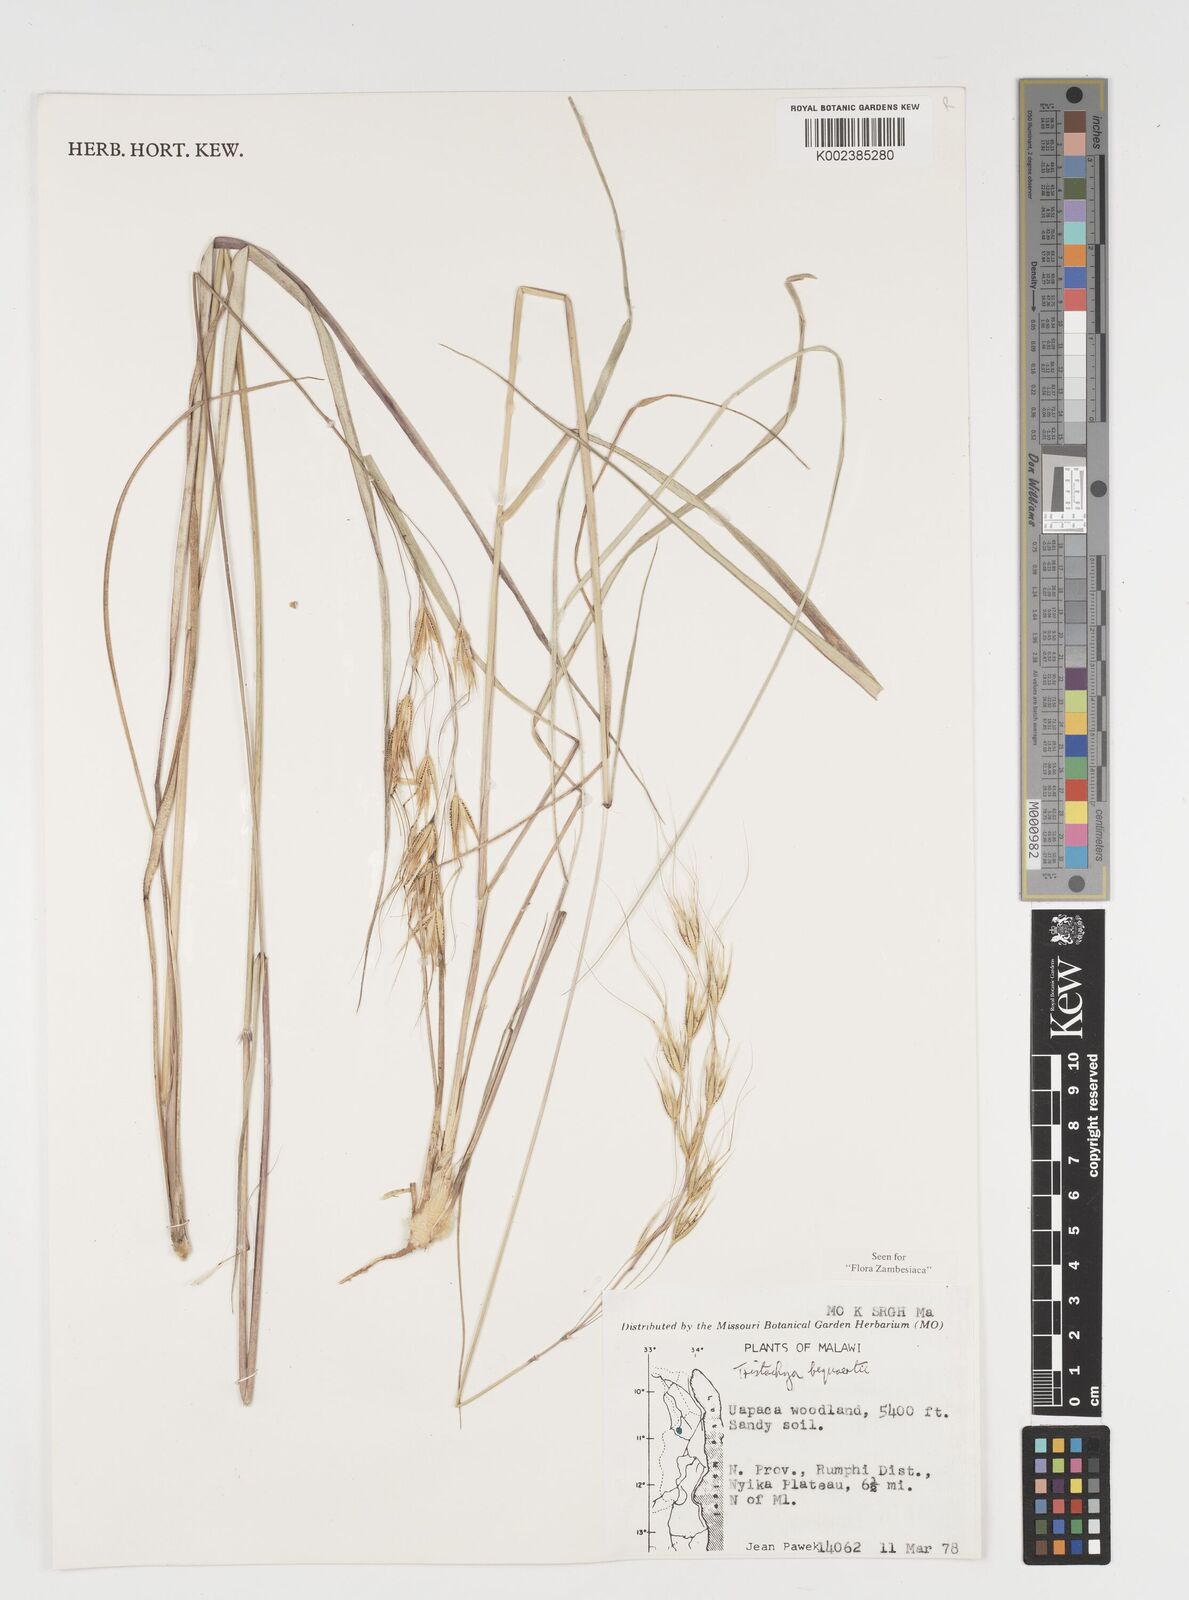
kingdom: Plantae
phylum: Tracheophyta
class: Liliopsida
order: Poales
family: Poaceae
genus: Tristachya
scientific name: Tristachya bequaertii
